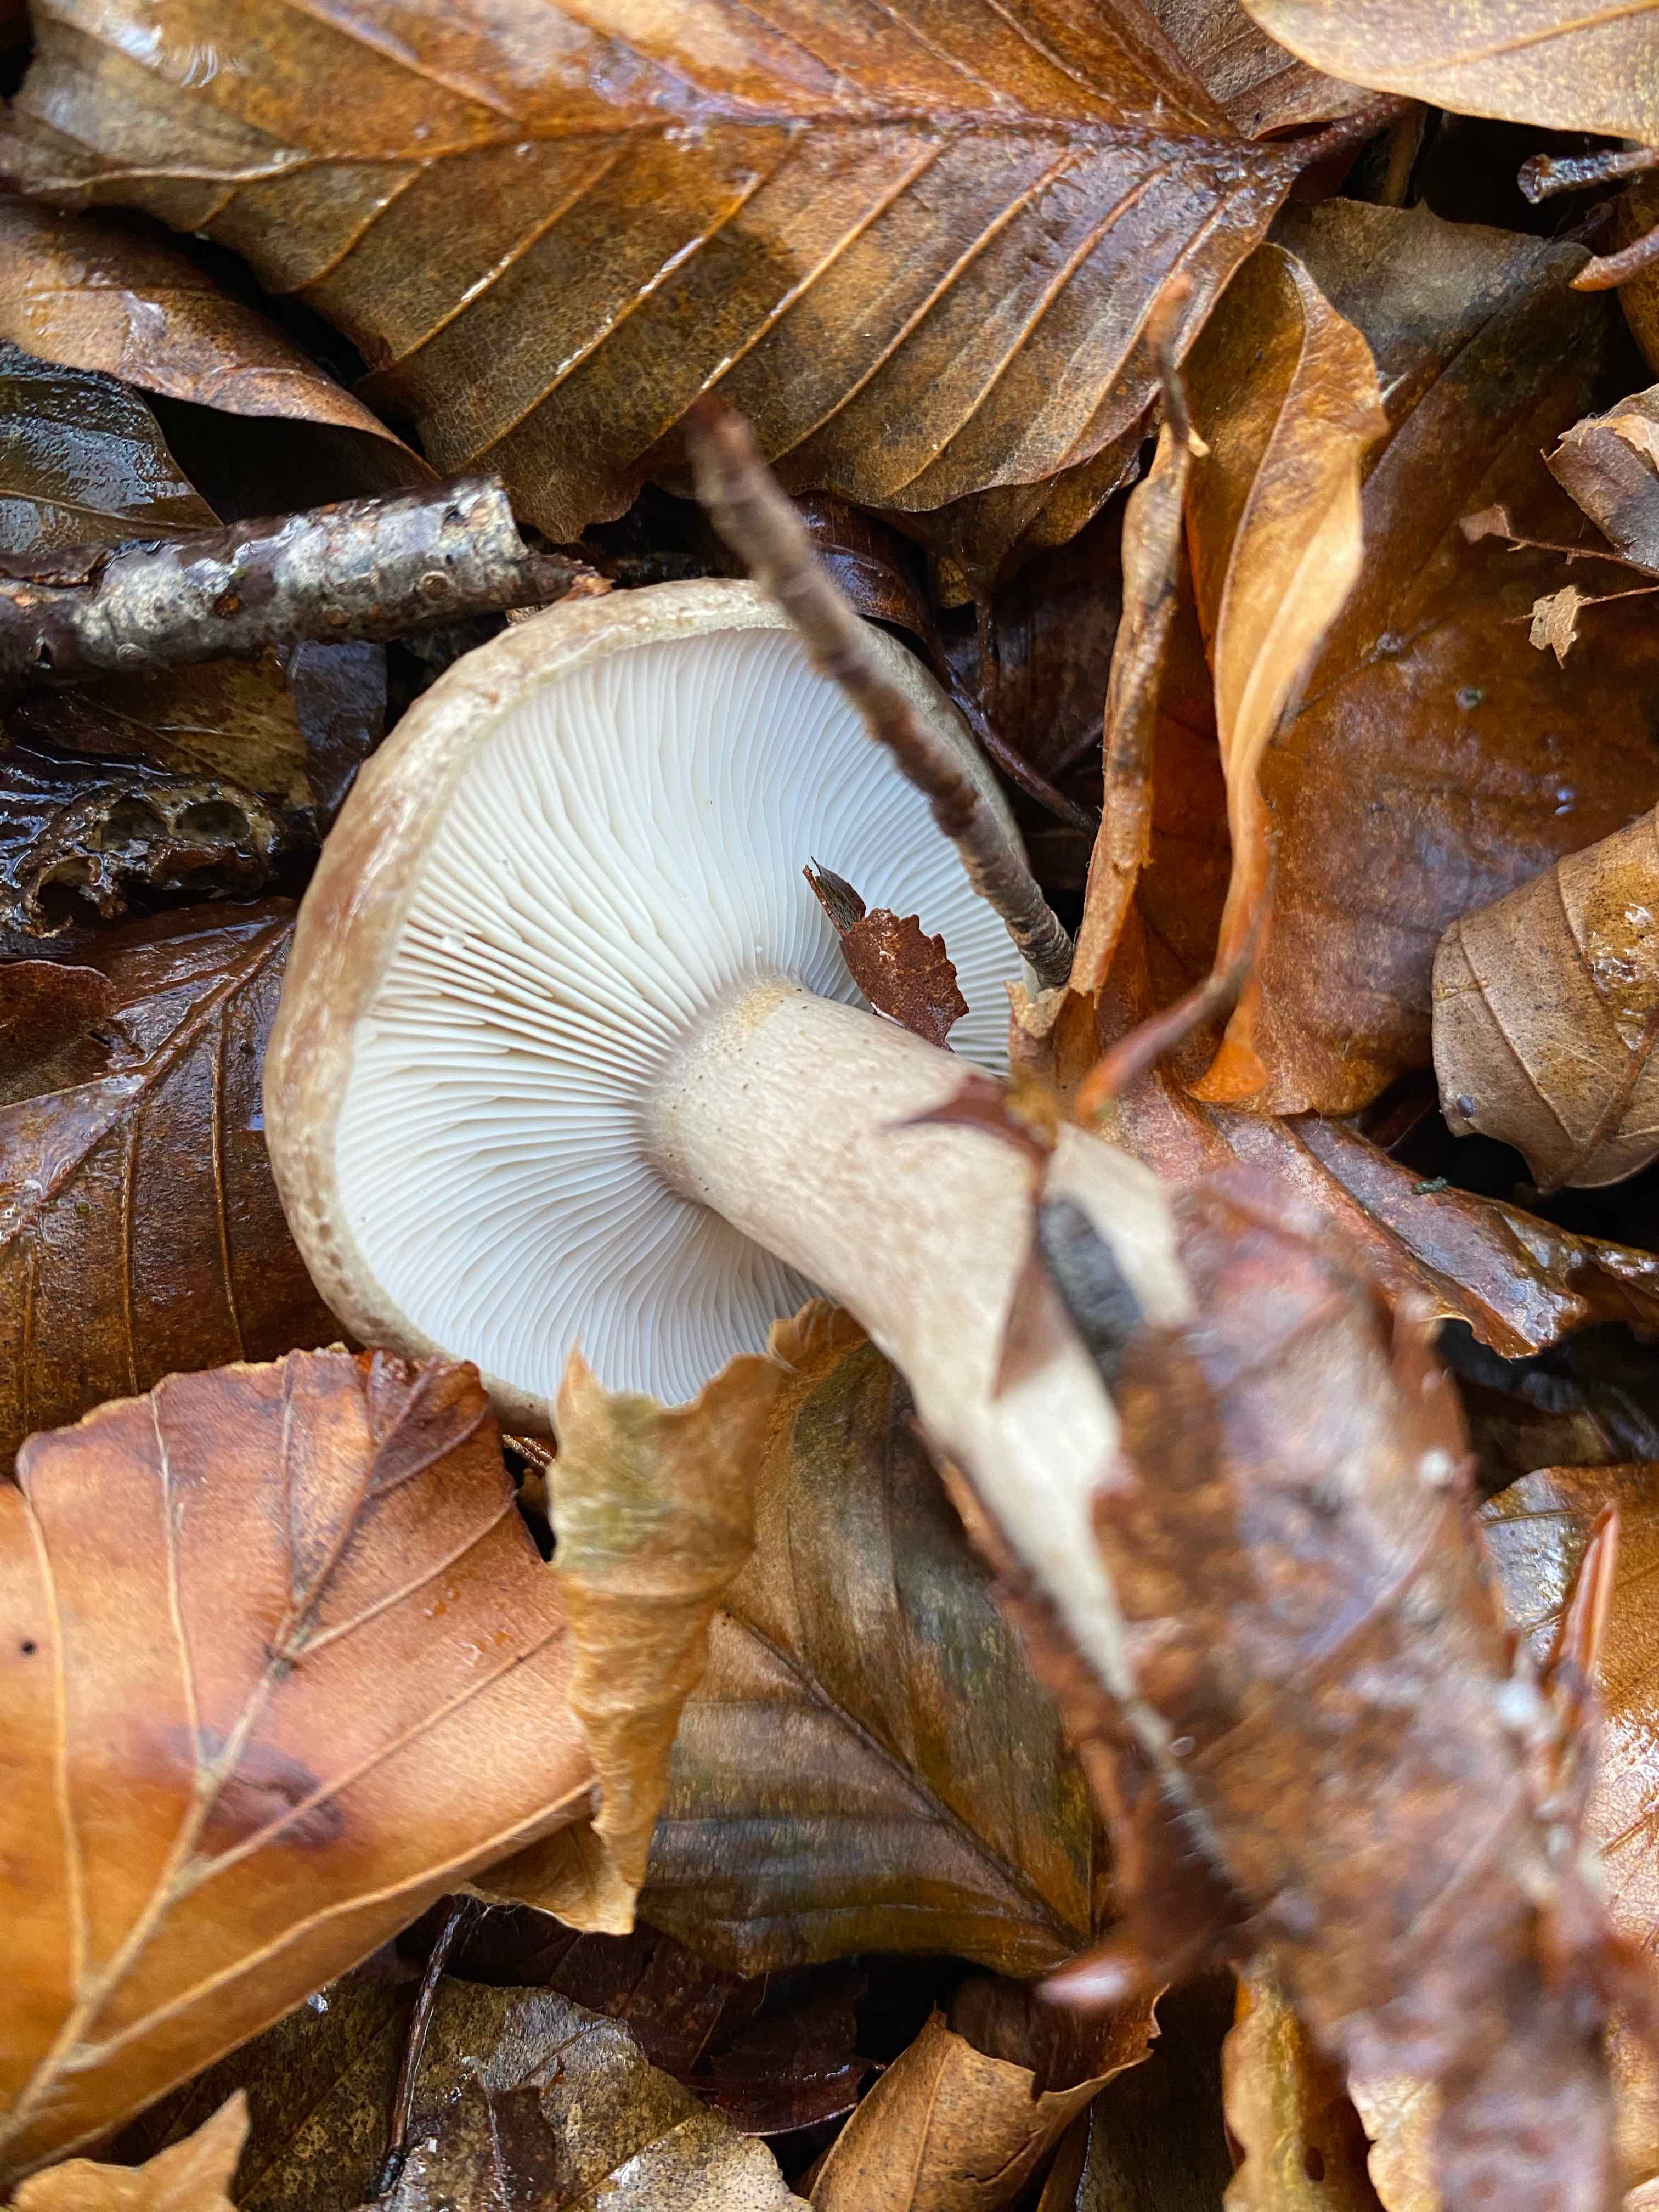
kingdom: Fungi
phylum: Basidiomycota
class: Agaricomycetes
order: Russulales
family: Russulaceae
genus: Lactarius
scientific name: Lactarius blennius
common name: dråbeplettet mælkehat
